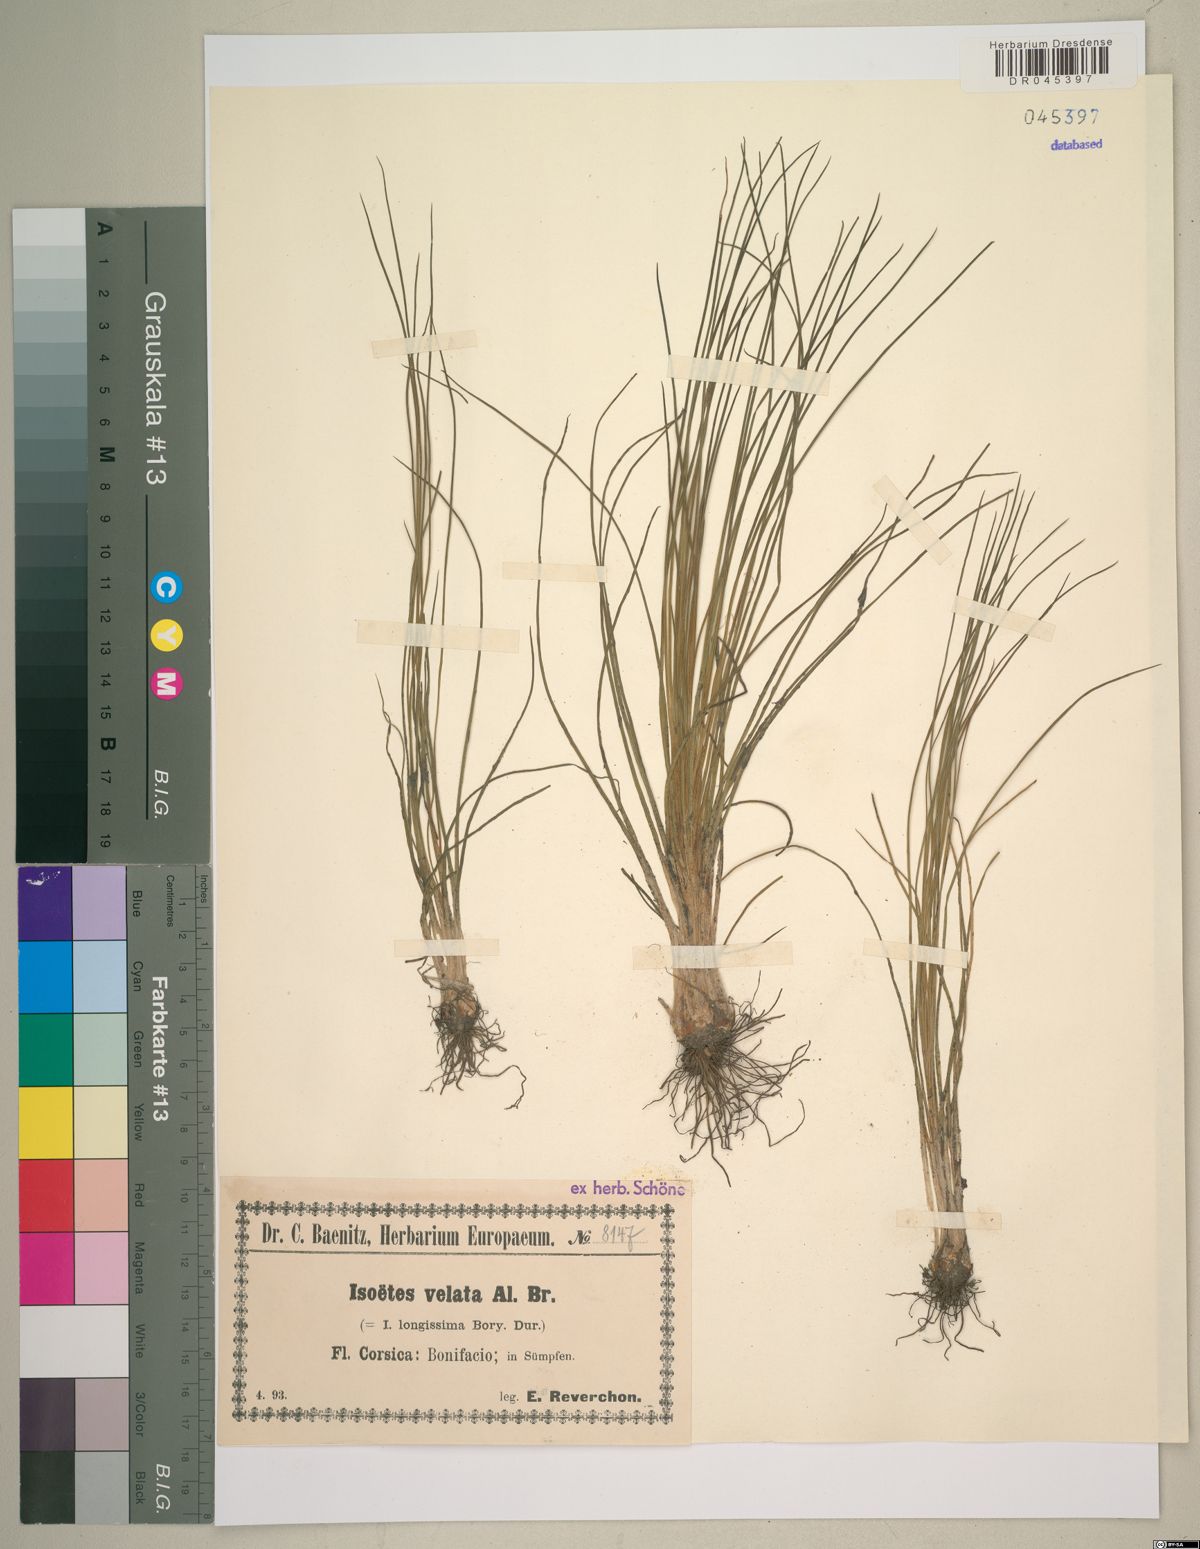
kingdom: Plantae
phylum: Tracheophyta
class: Lycopodiopsida
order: Isoetales
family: Isoetaceae
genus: Isoetes
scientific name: Isoetes longissima
